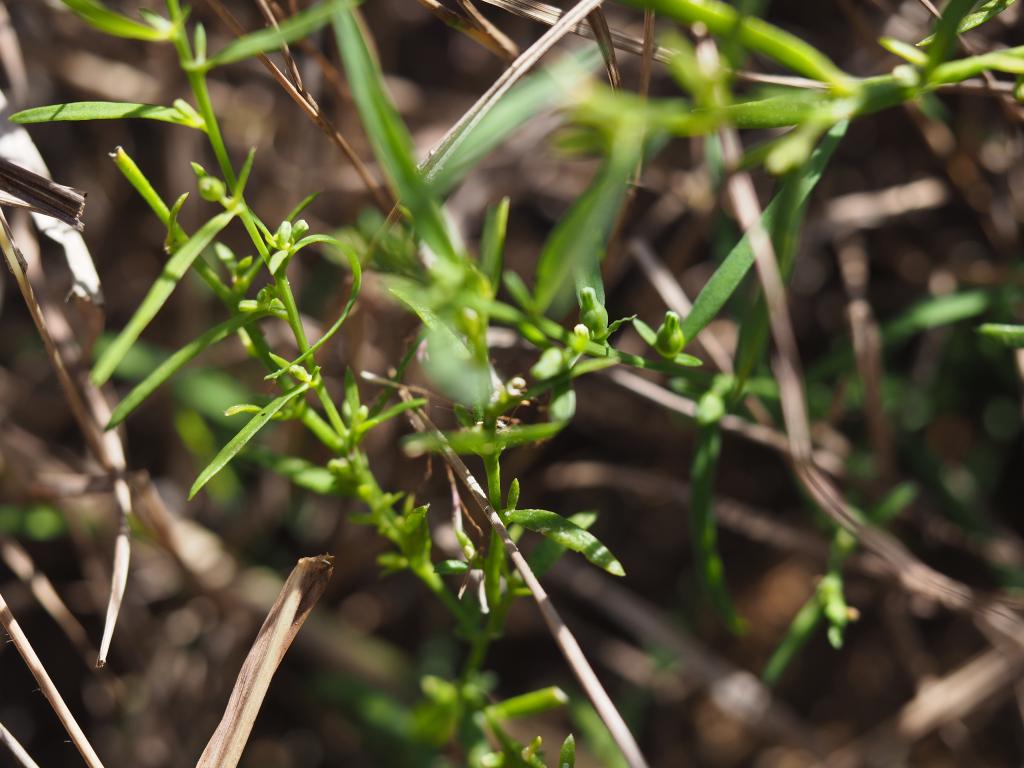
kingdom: Plantae
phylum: Tracheophyta
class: Magnoliopsida
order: Santalales
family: Thesiaceae
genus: Thesium
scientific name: Thesium chinense
